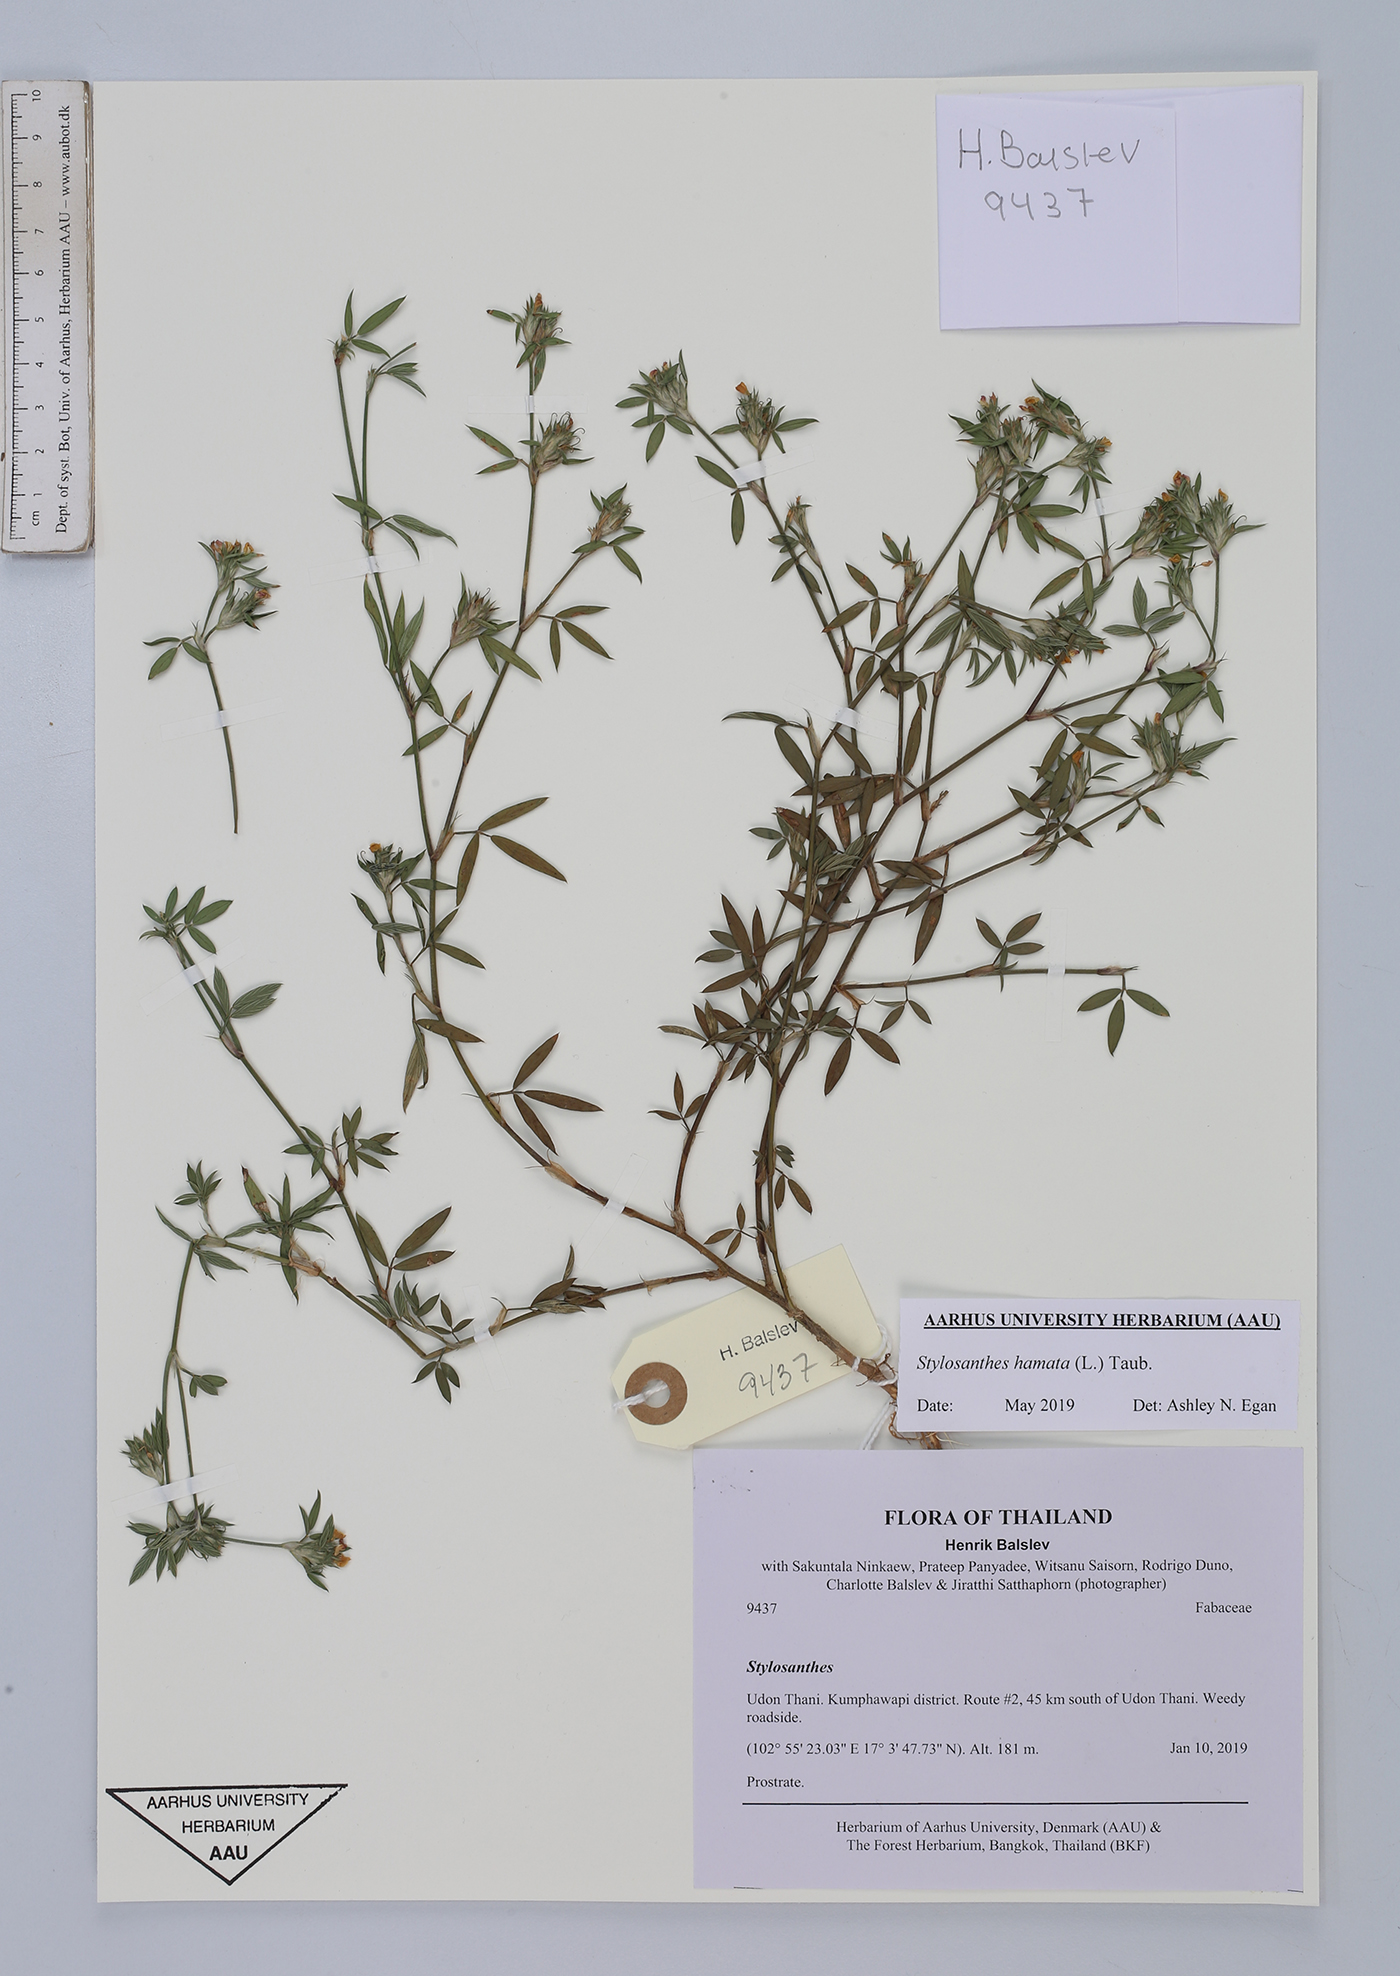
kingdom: Plantae
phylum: Tracheophyta
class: Magnoliopsida
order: Fabales
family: Fabaceae
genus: Stylosanthes
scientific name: Stylosanthes hamata
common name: Cheesytoes
